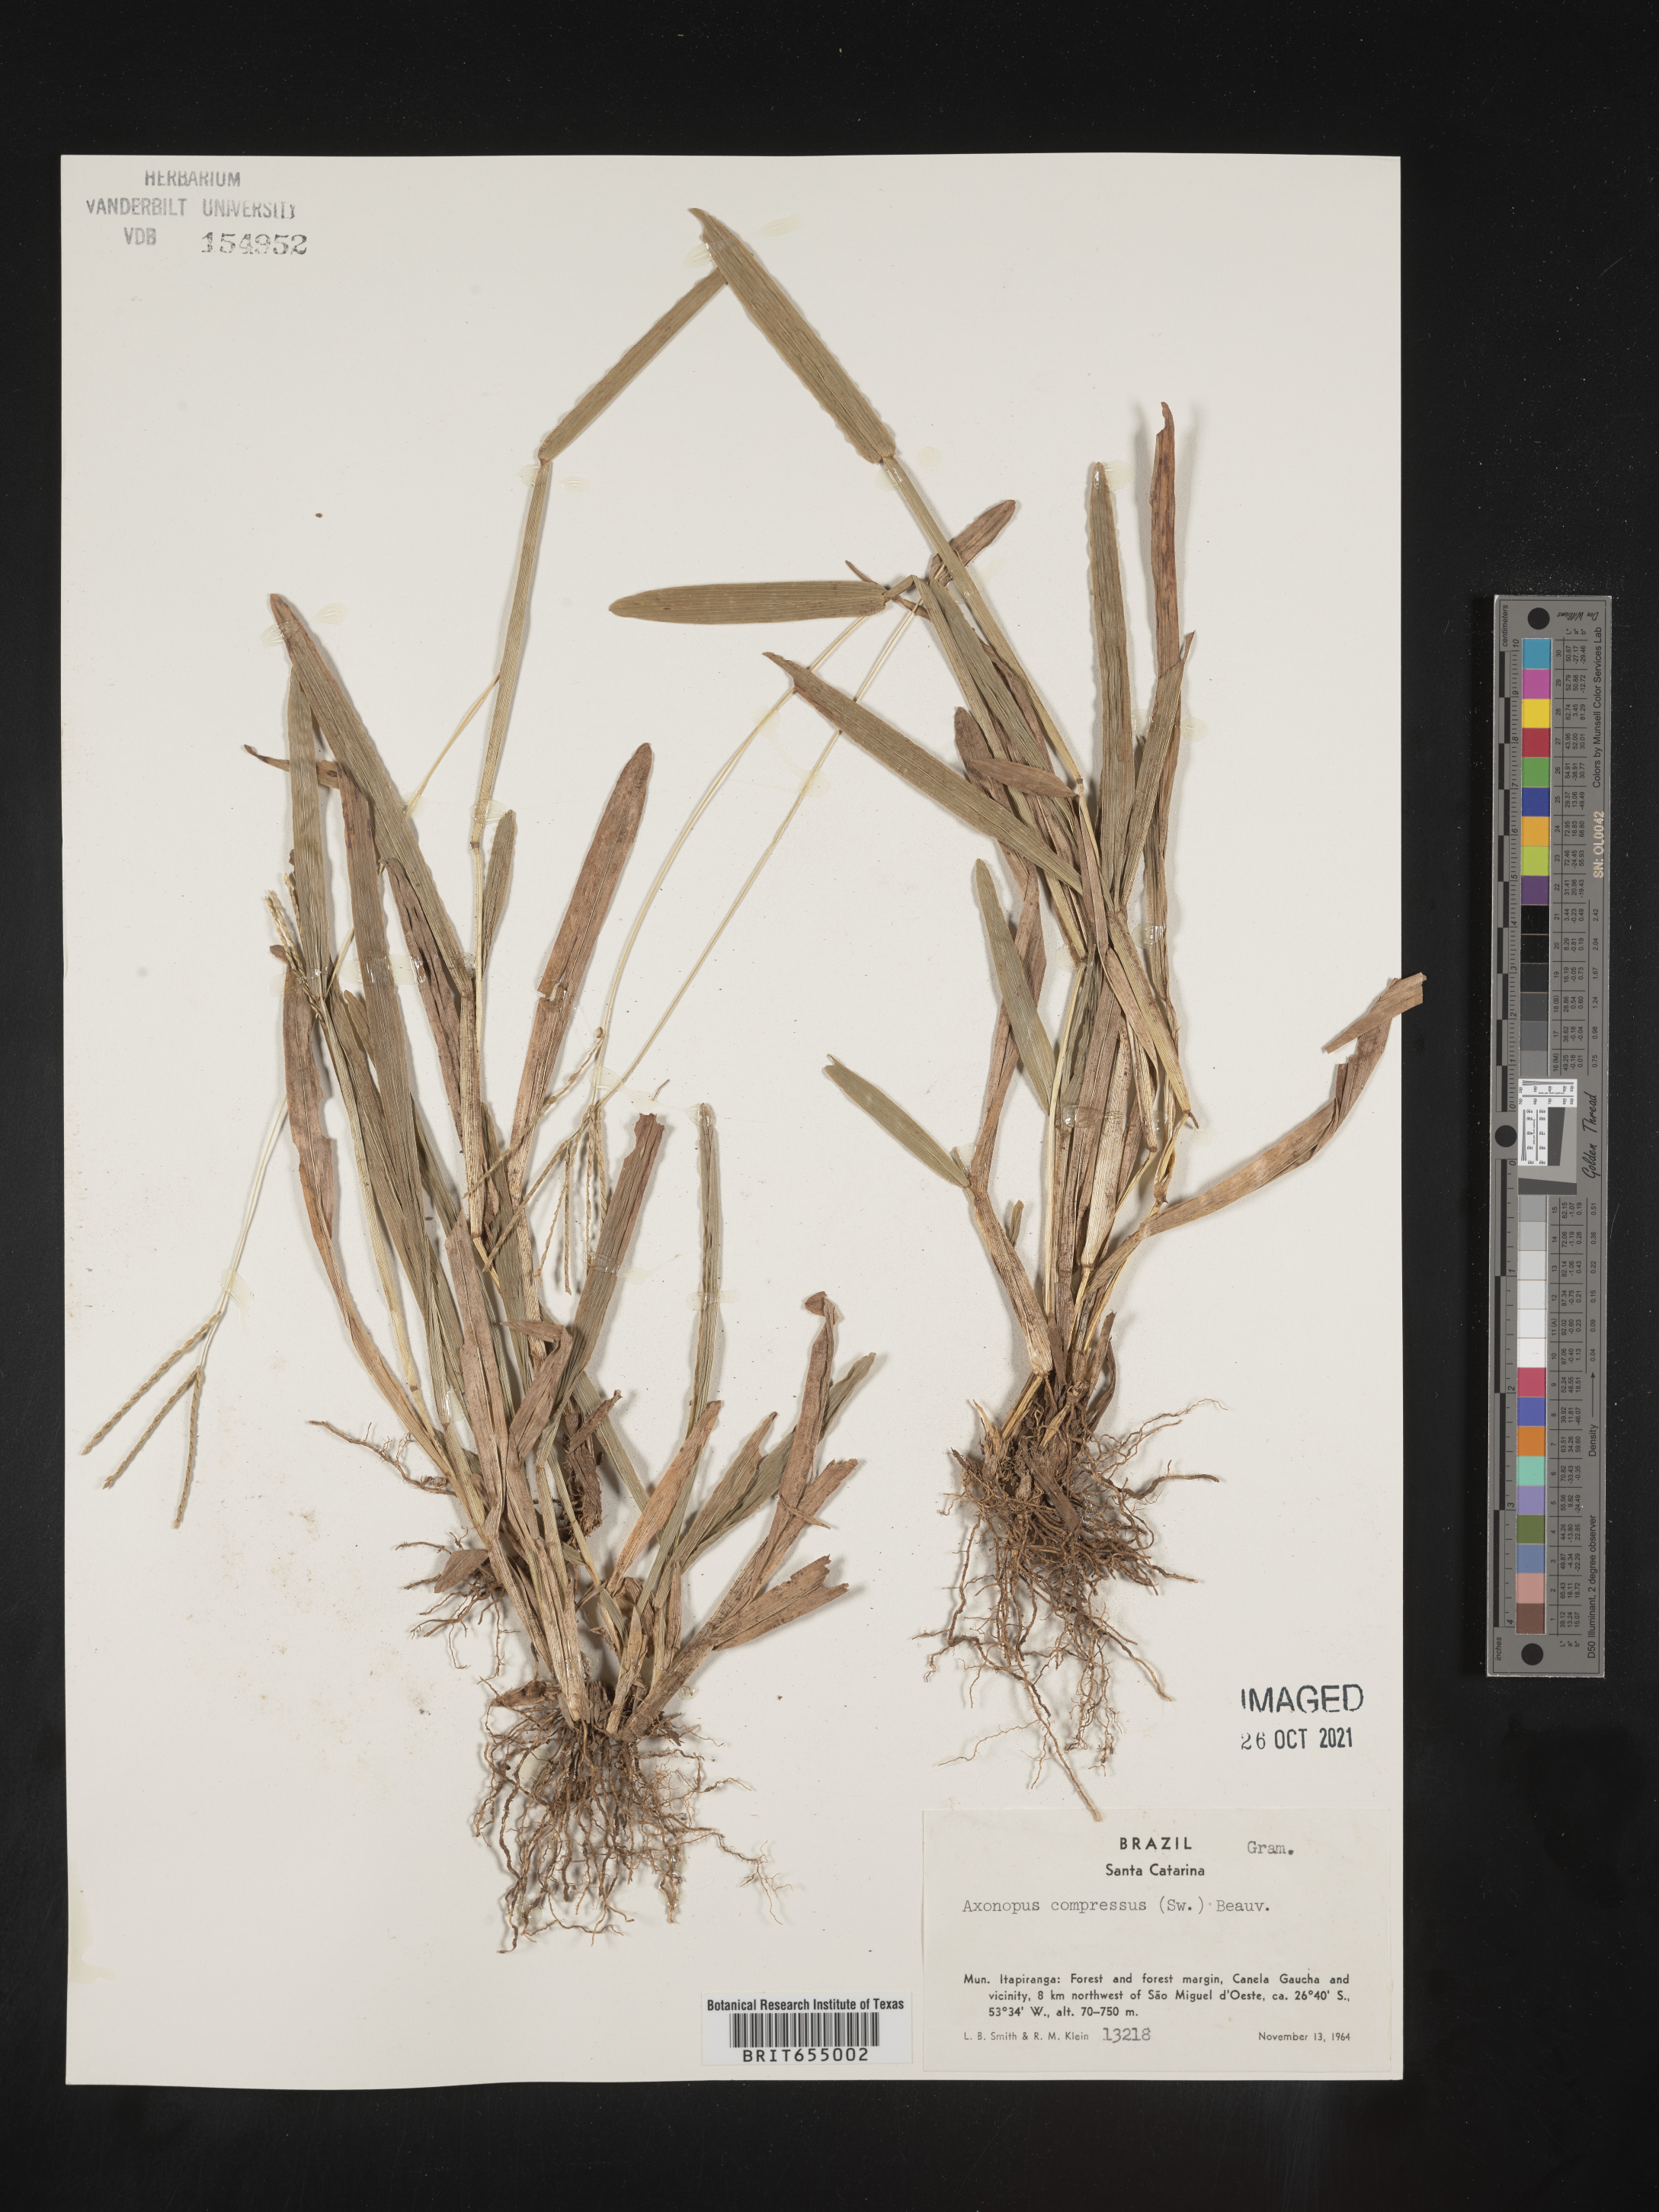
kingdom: Plantae
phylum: Tracheophyta
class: Liliopsida
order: Poales
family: Poaceae
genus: Axonopus
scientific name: Axonopus
